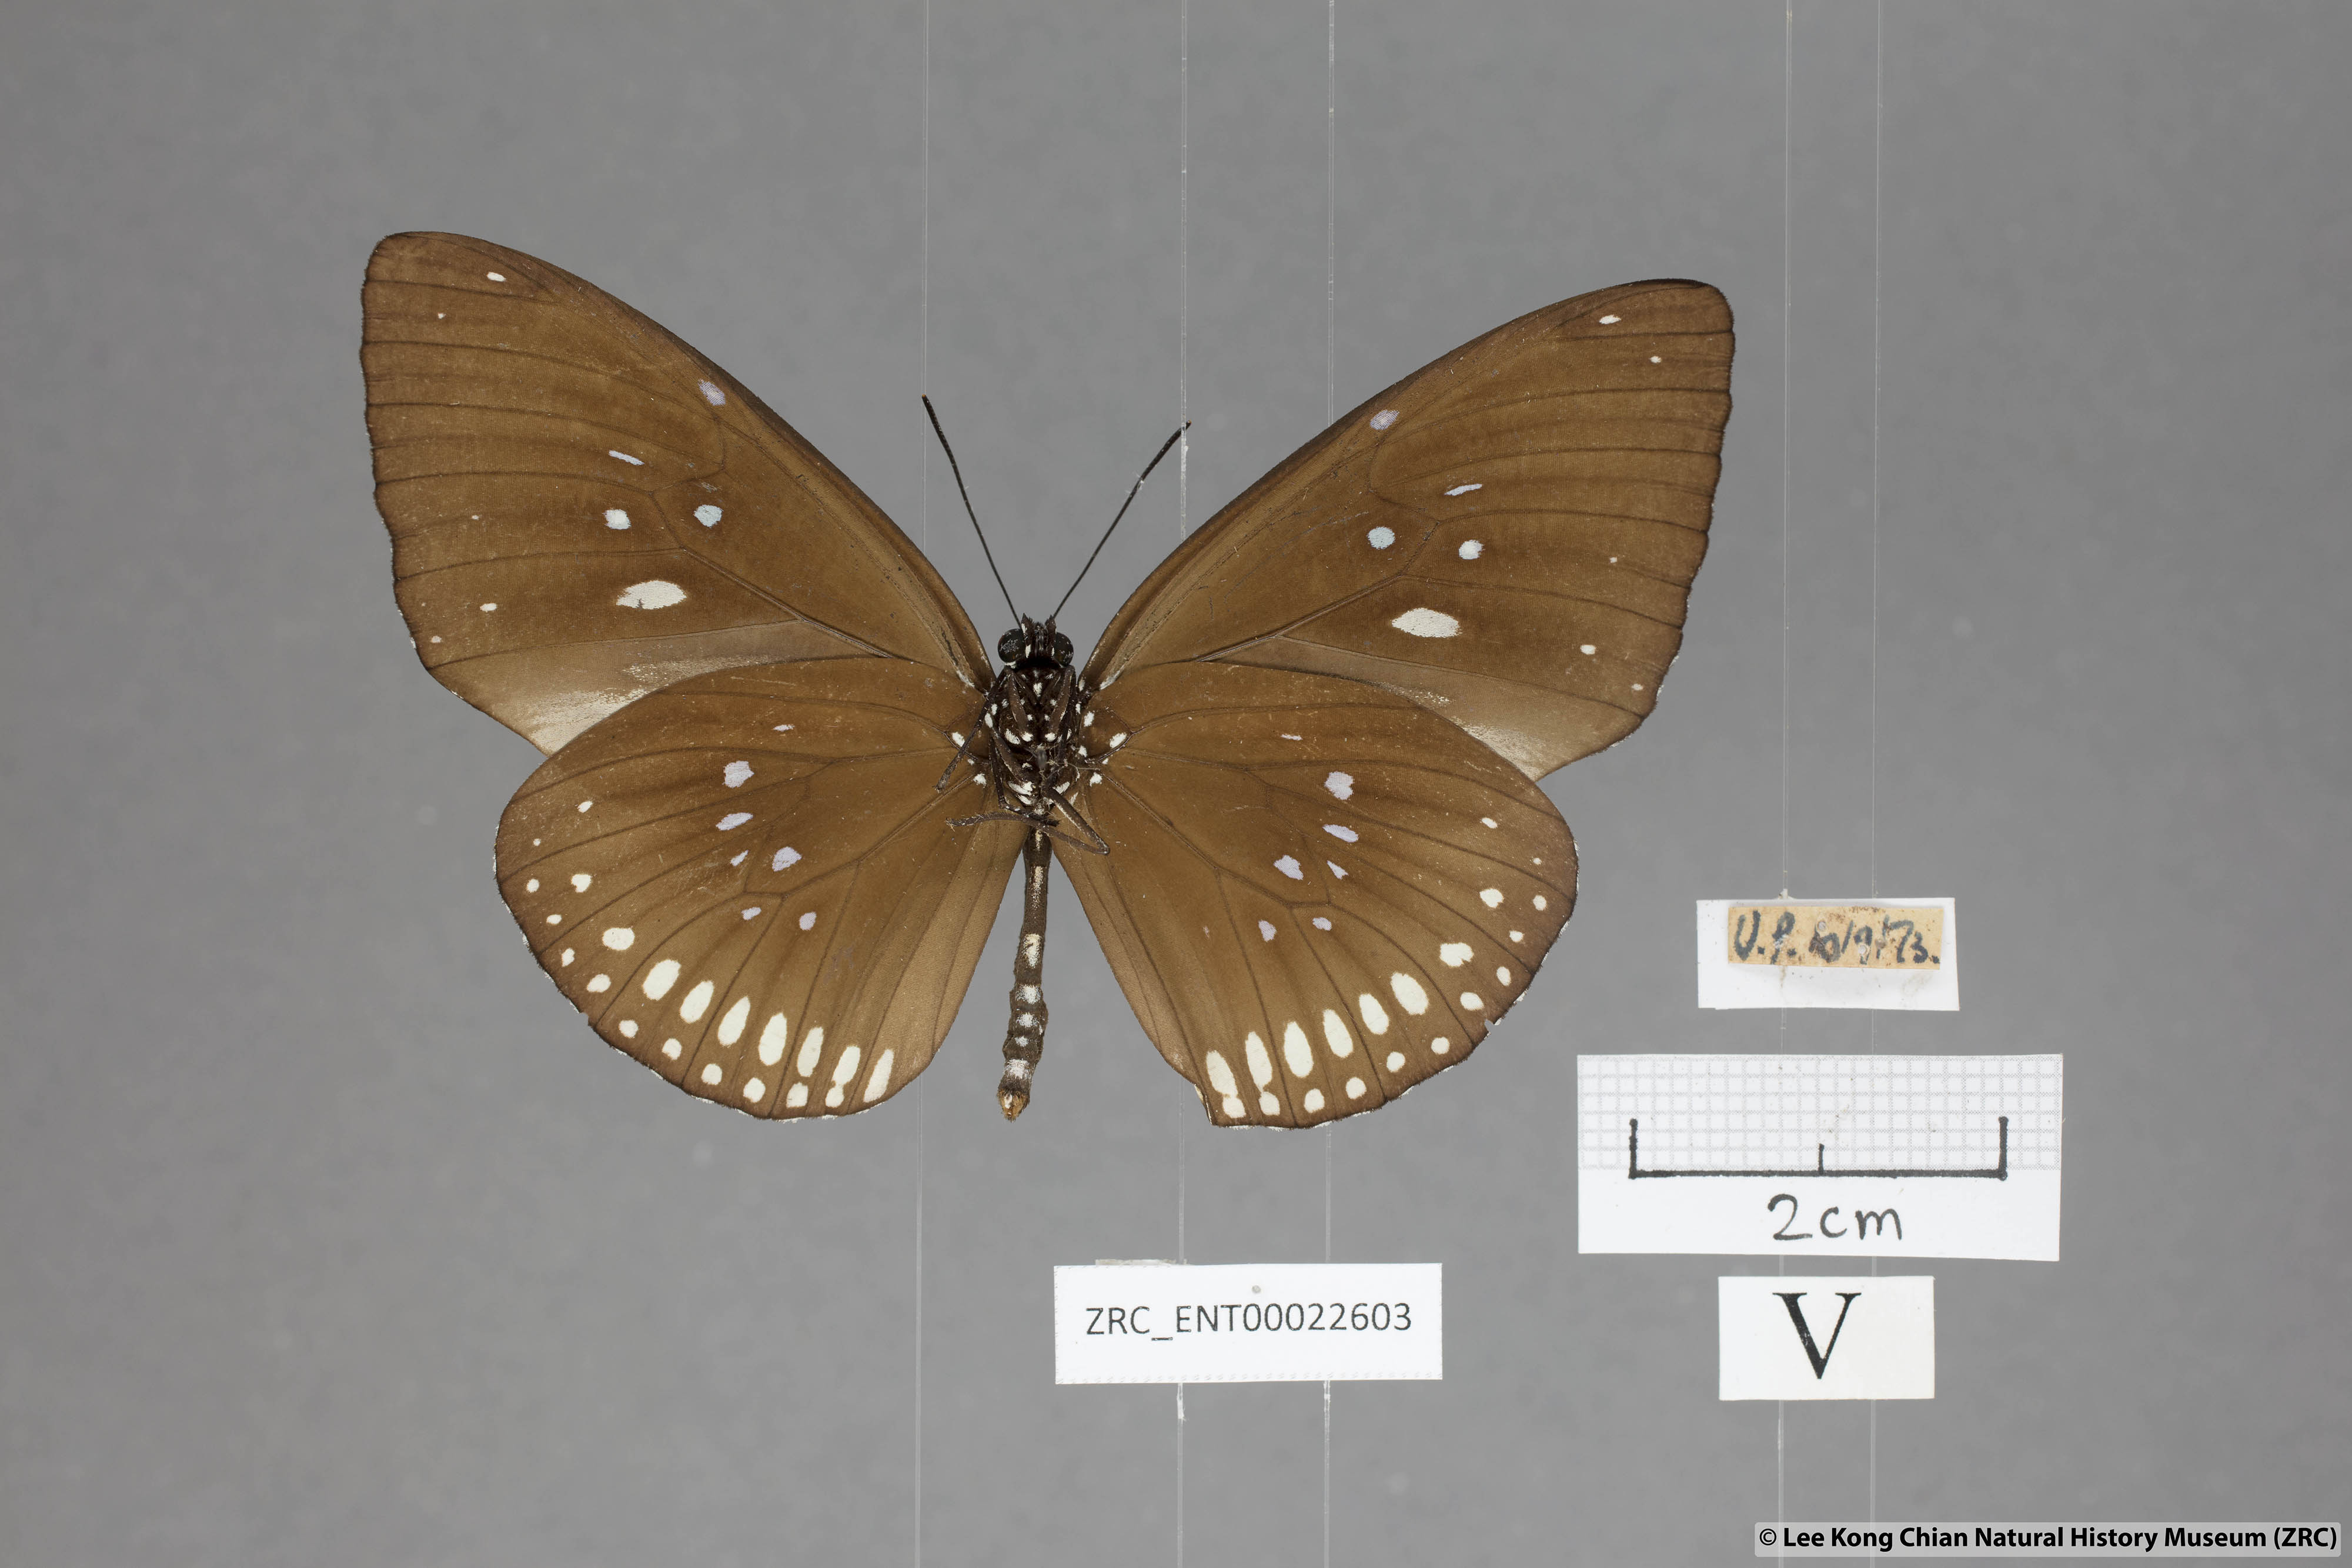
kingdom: Animalia
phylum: Arthropoda
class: Insecta
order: Lepidoptera
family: Nymphalidae
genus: Euploea
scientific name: Euploea modesta
